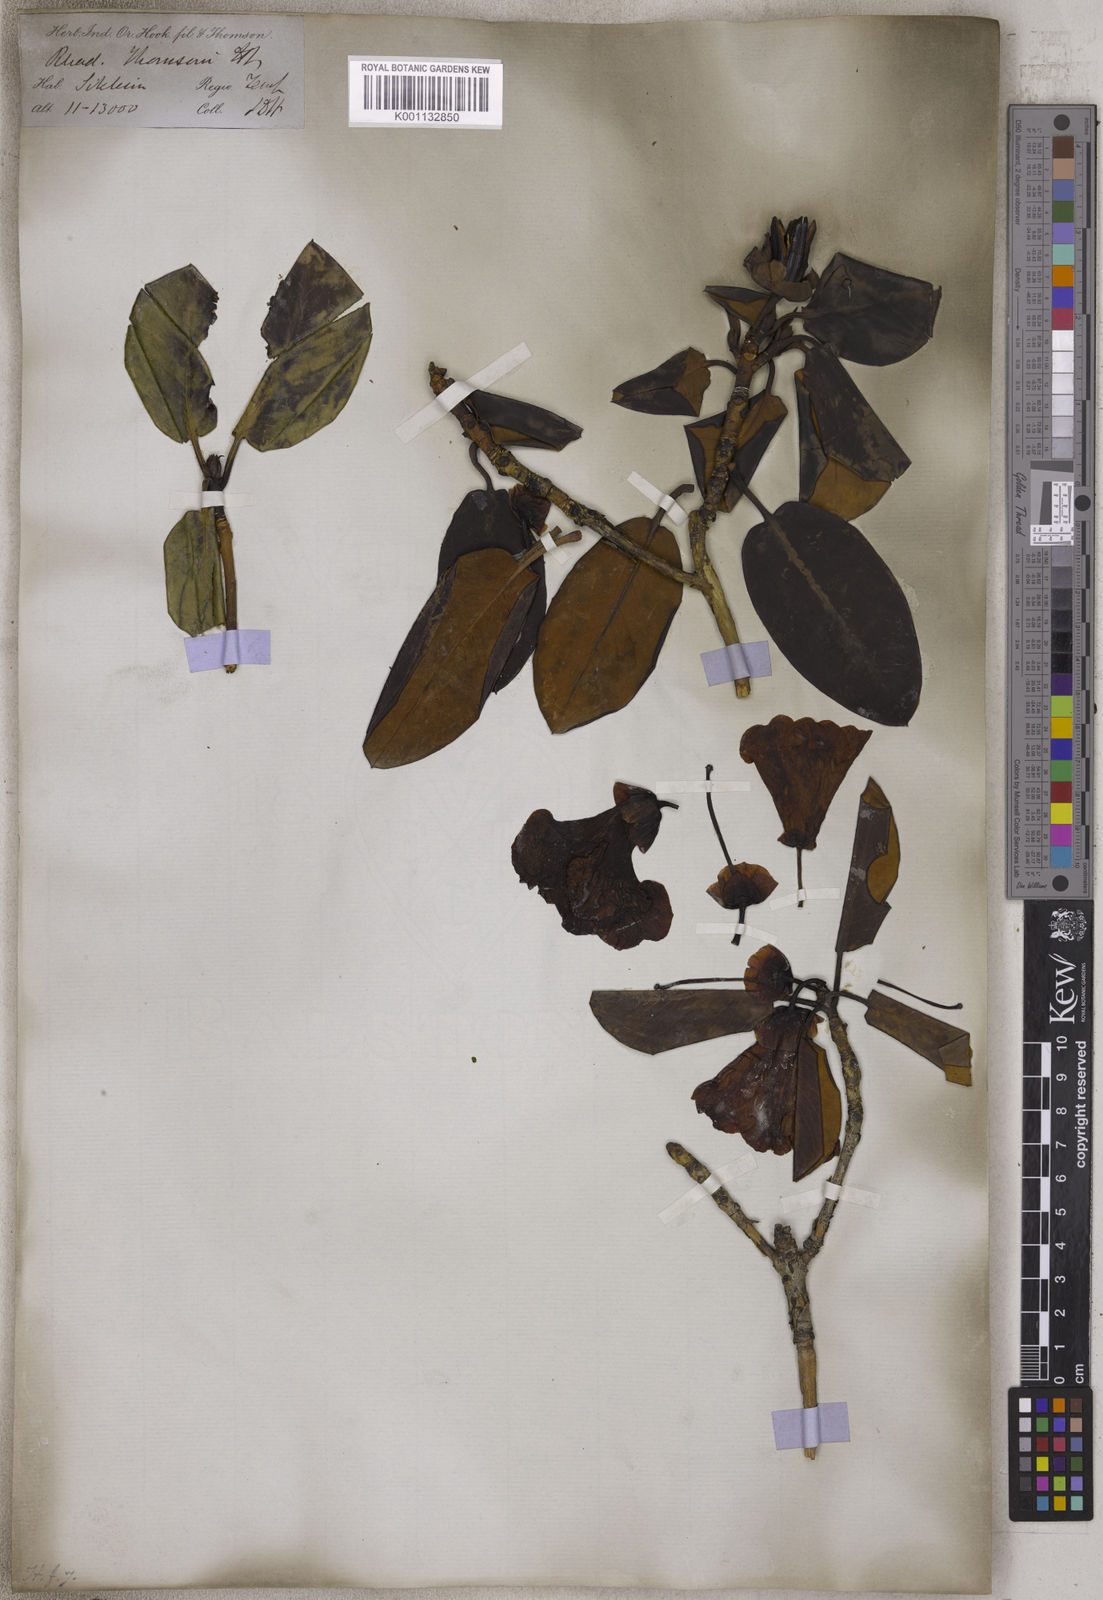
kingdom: Plantae
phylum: Tracheophyta
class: Magnoliopsida
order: Ericales
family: Ericaceae
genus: Rhododendron
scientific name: Rhododendron thomsonii
